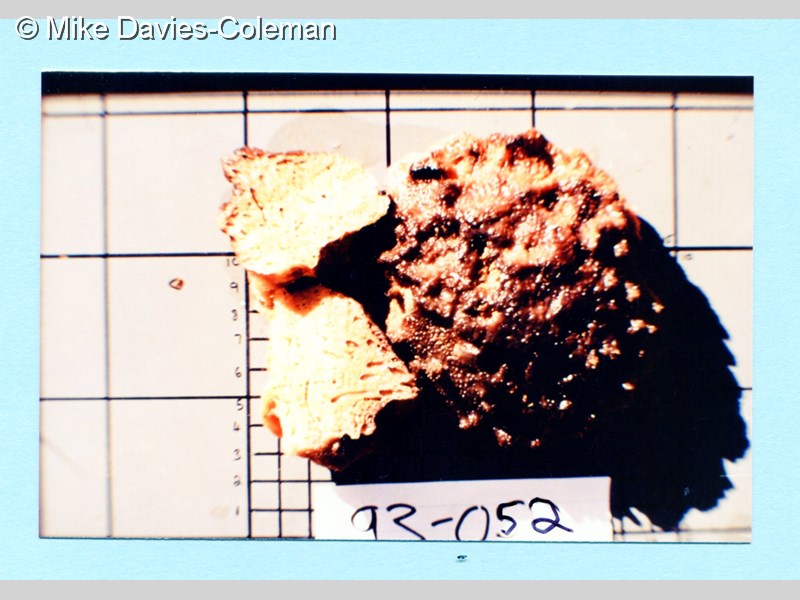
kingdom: Animalia
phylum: Porifera
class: Demospongiae
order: Tethyida
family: Tethyidae
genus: Tethya
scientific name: Tethya
